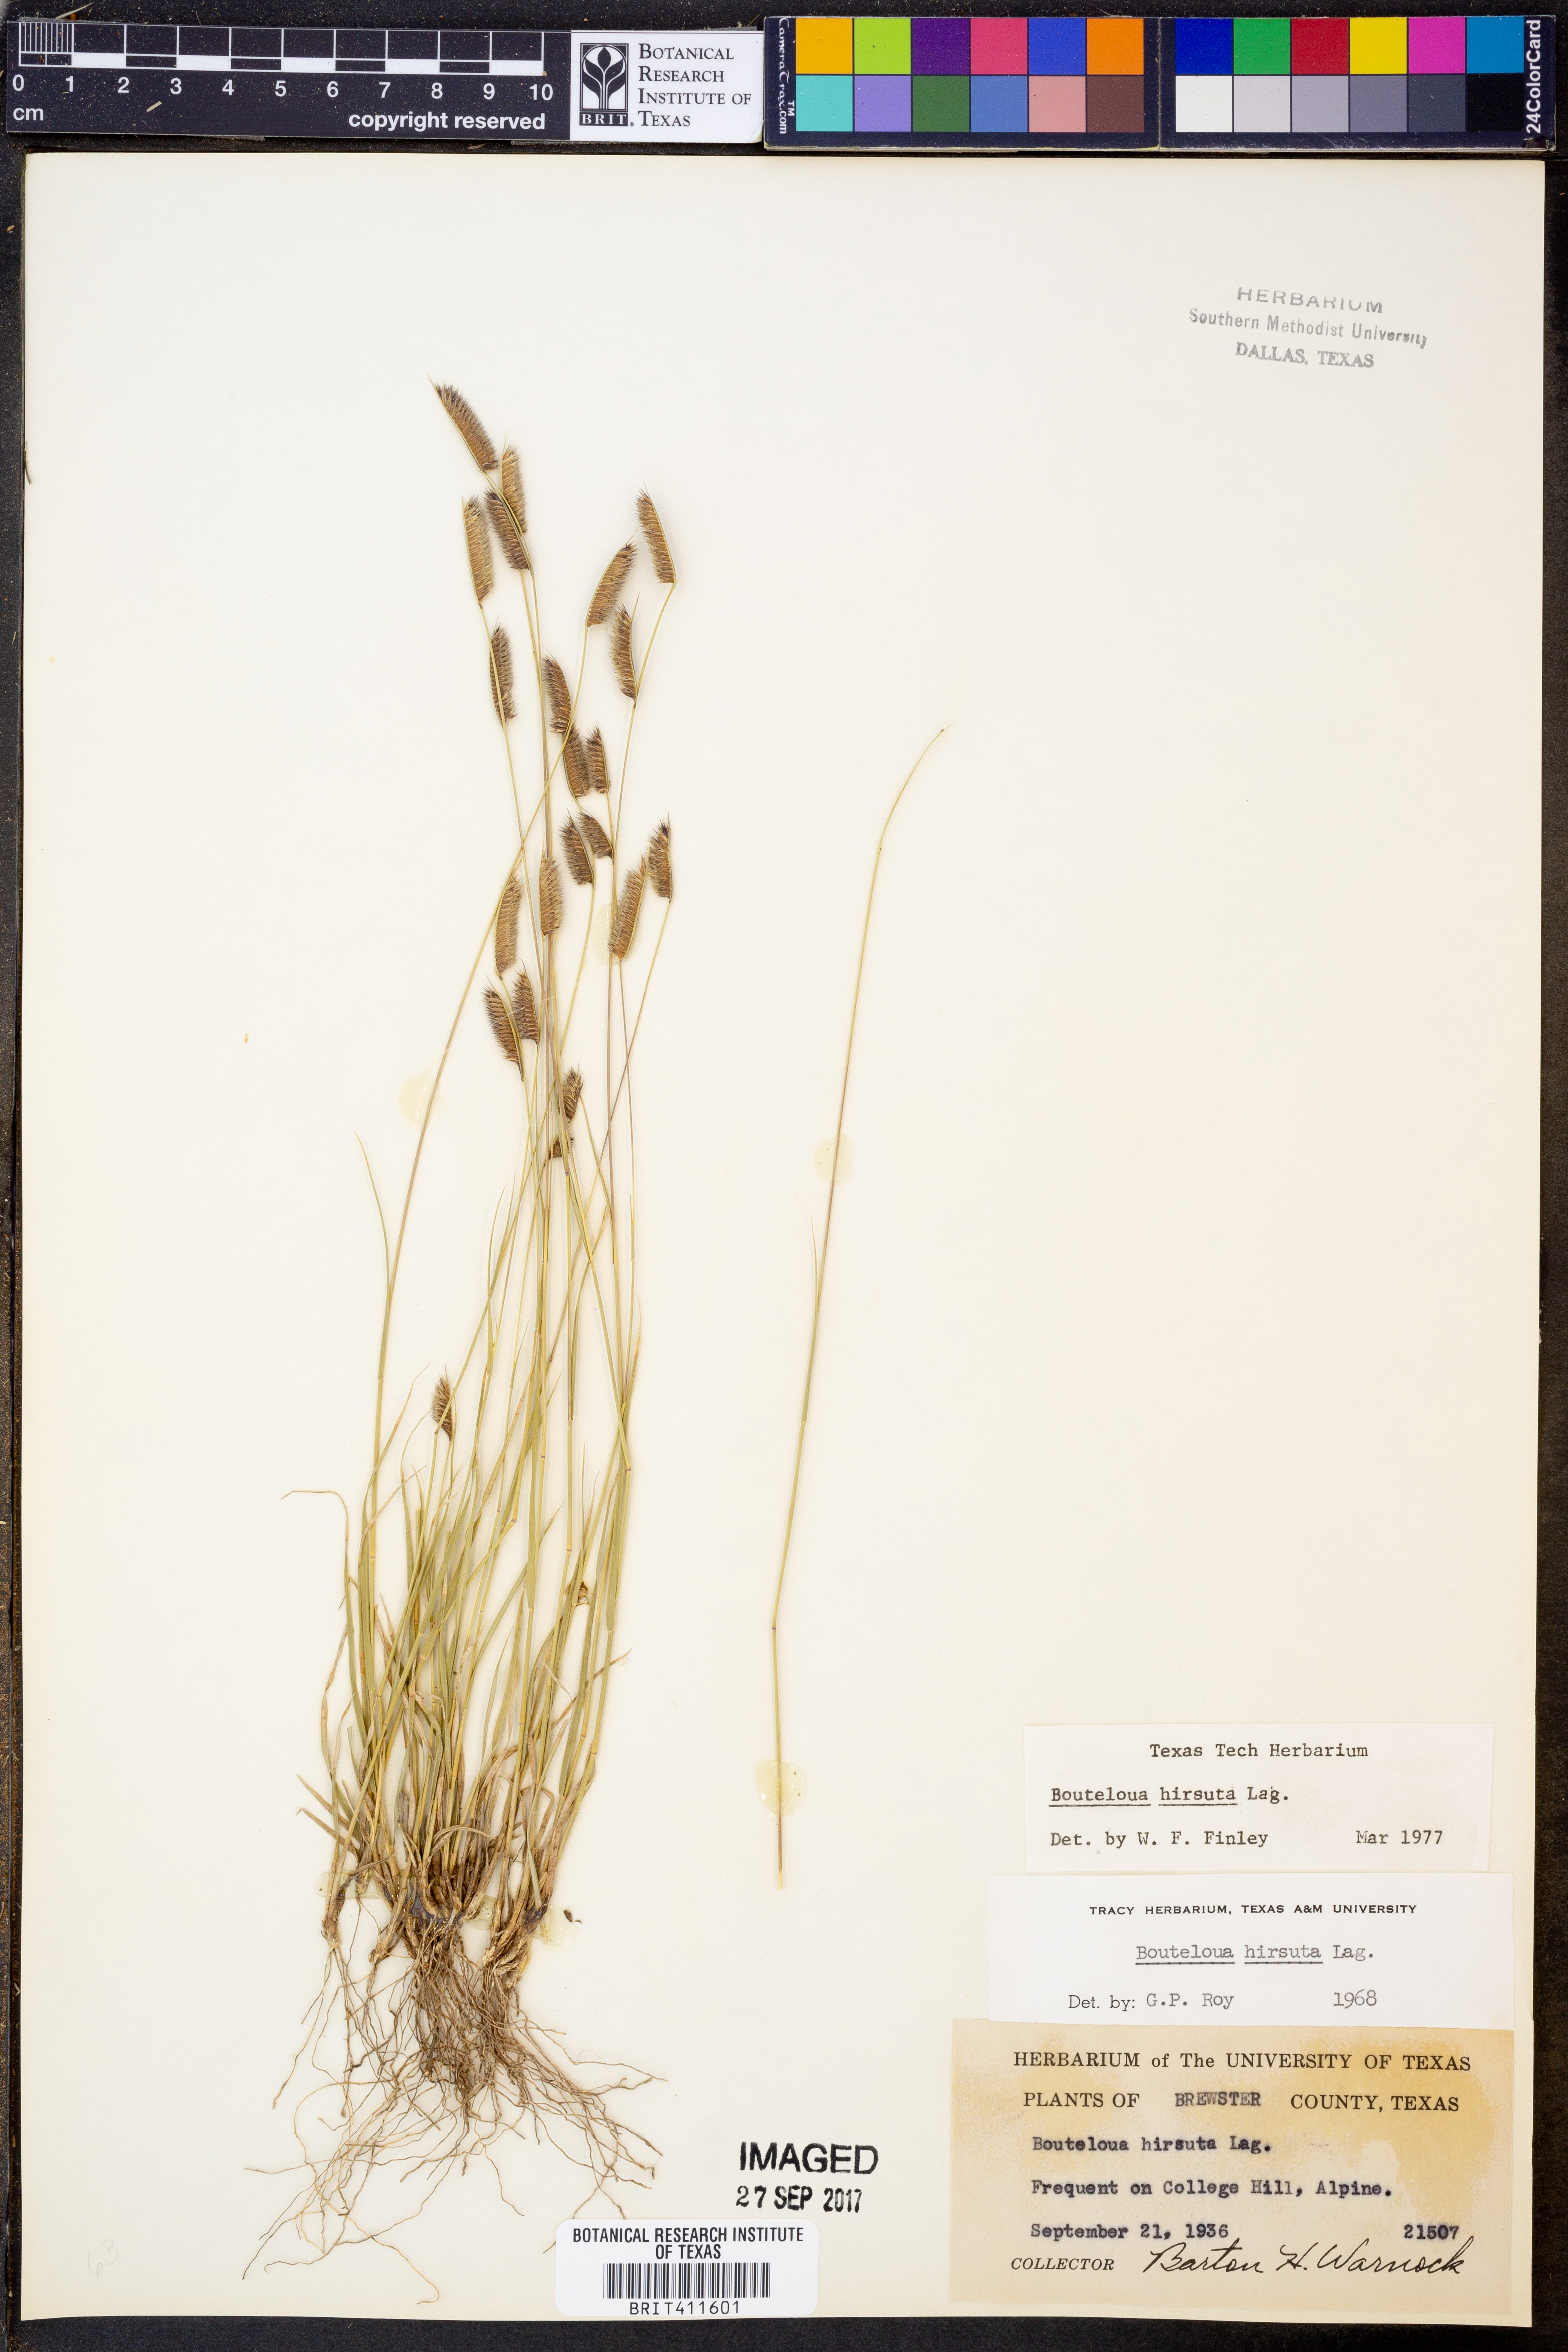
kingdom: Plantae
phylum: Tracheophyta
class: Liliopsida
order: Poales
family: Poaceae
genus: Bouteloua
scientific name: Bouteloua hirsuta
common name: Hairy grama
